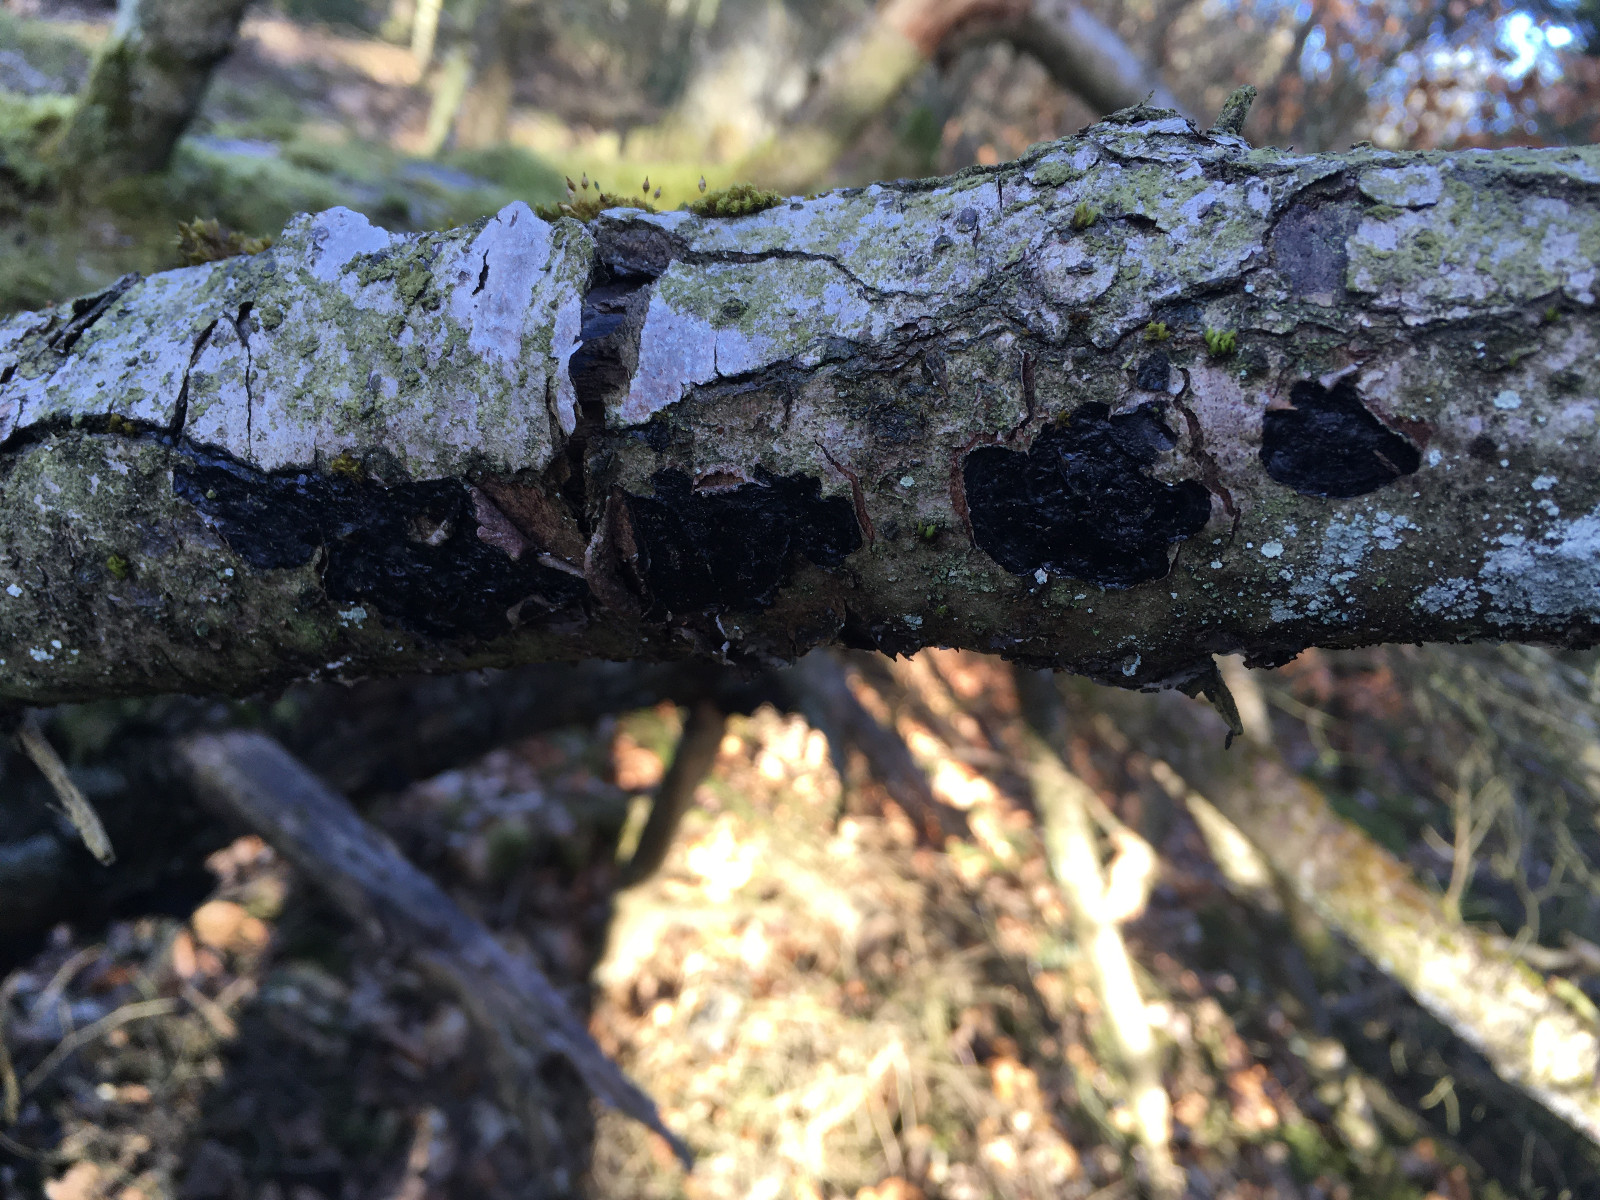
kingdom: Fungi
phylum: Basidiomycota
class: Agaricomycetes
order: Auriculariales
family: Auriculariaceae
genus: Exidia
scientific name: Exidia pithya
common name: gran-bævretop
